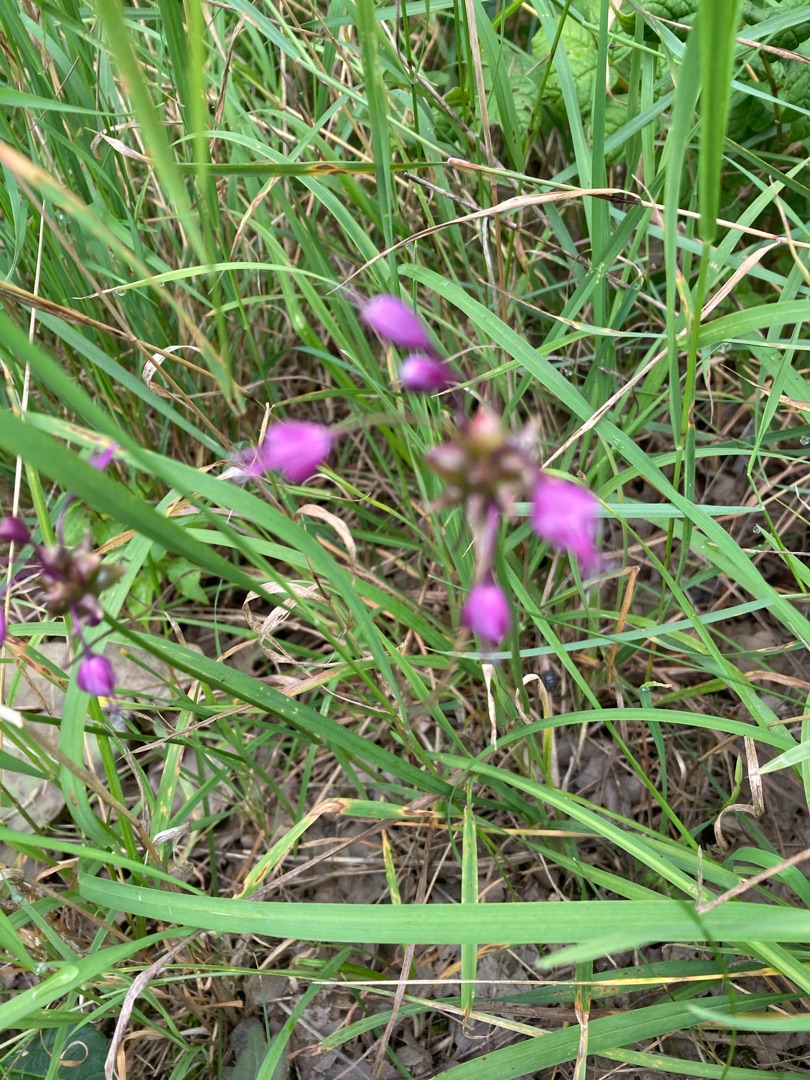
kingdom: Plantae
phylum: Tracheophyta
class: Liliopsida
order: Asparagales
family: Amaryllidaceae
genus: Allium
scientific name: Allium carinatum
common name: Kølet løg
